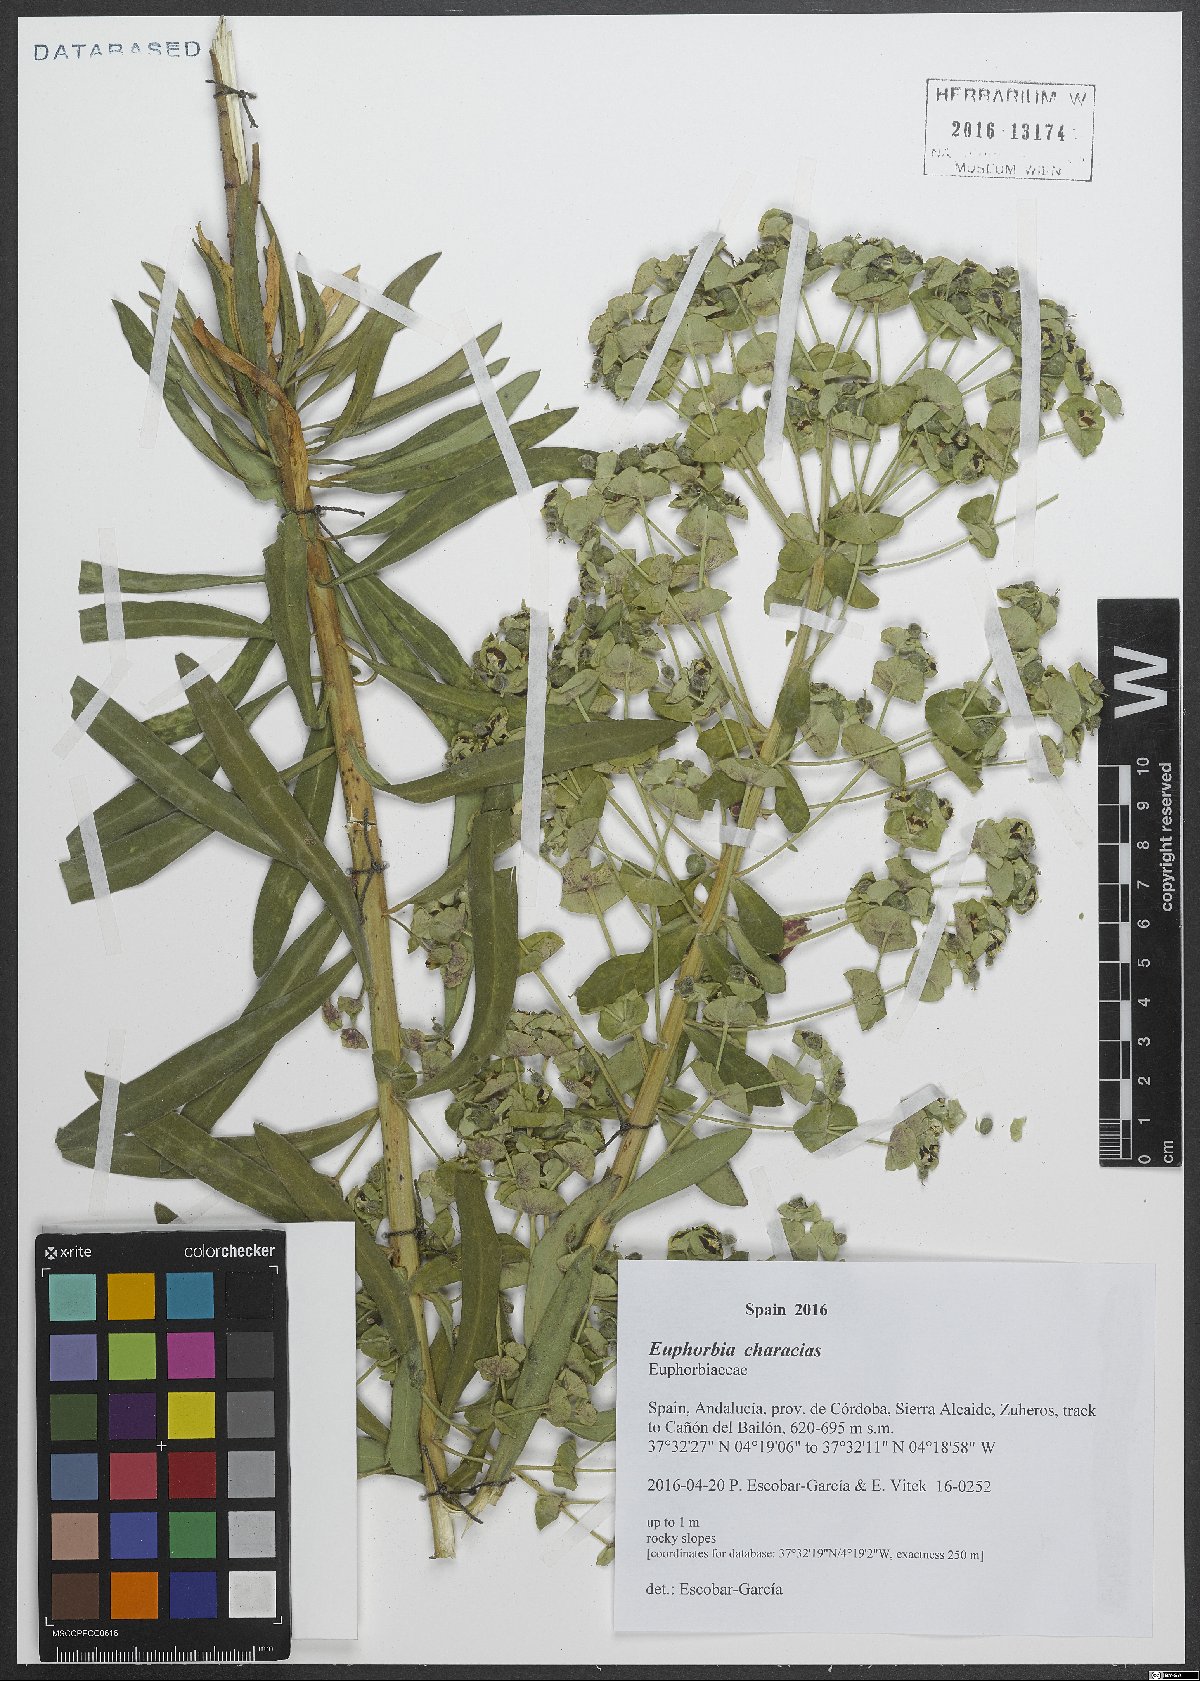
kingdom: Plantae
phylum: Tracheophyta
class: Magnoliopsida
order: Malpighiales
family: Euphorbiaceae
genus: Euphorbia
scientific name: Euphorbia characias
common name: Mediterranean spurge
